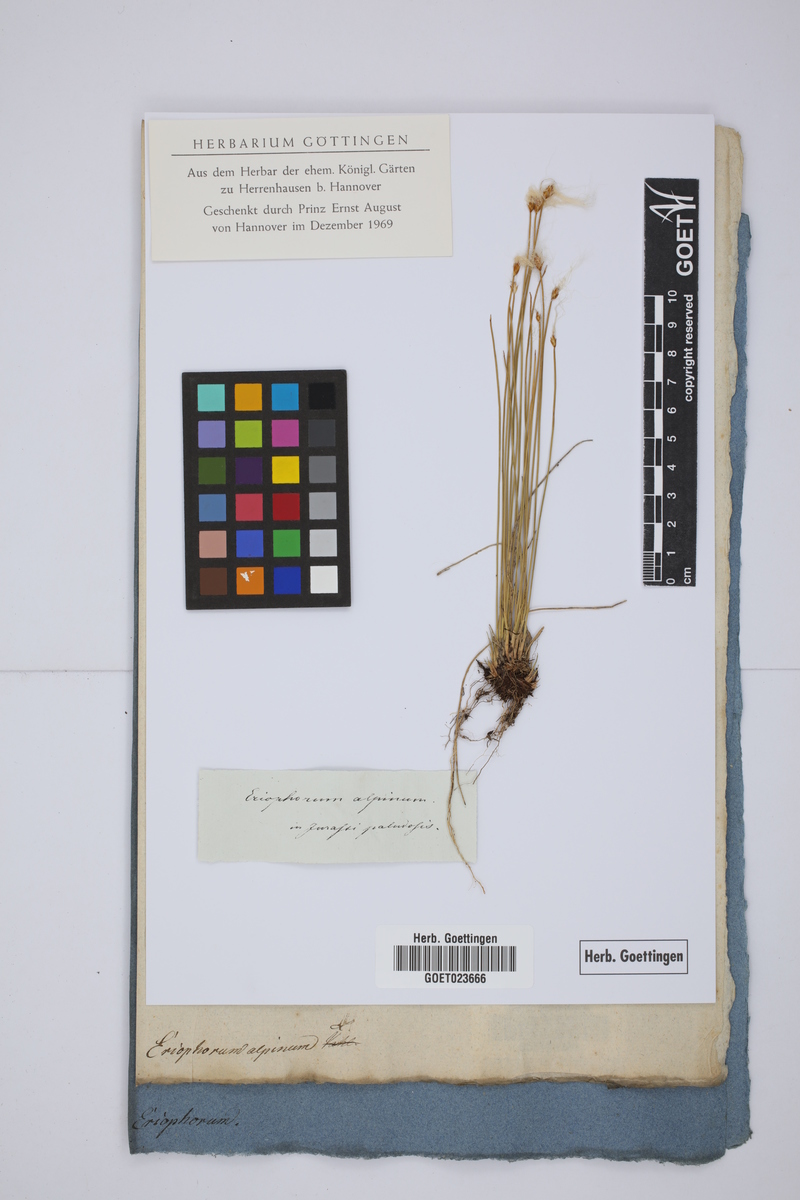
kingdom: Plantae
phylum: Tracheophyta
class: Liliopsida
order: Poales
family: Cyperaceae
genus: Trichophorum
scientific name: Trichophorum alpinum
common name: Alpine bulrush
